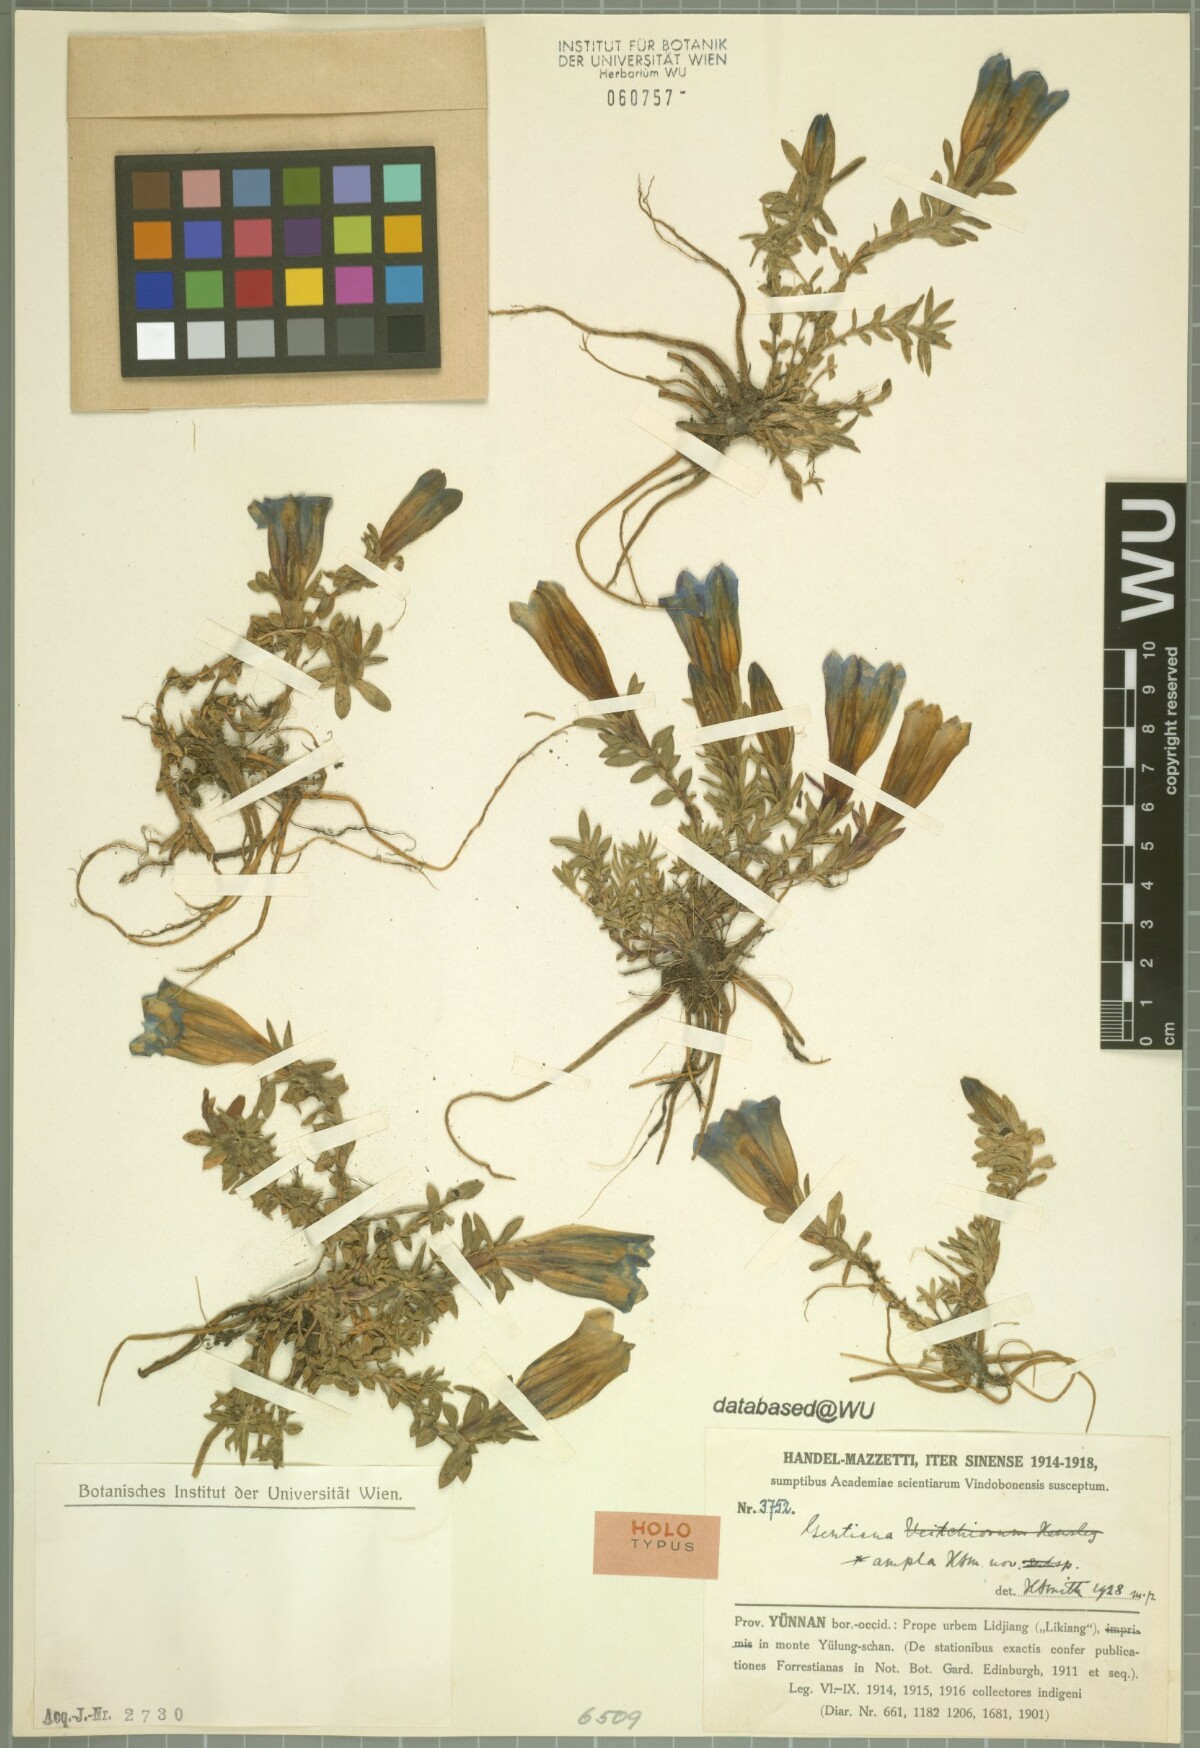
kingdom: Plantae
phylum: Tracheophyta
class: Magnoliopsida
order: Gentianales
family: Gentianaceae
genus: Gentiana
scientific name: Gentiana caelestis
